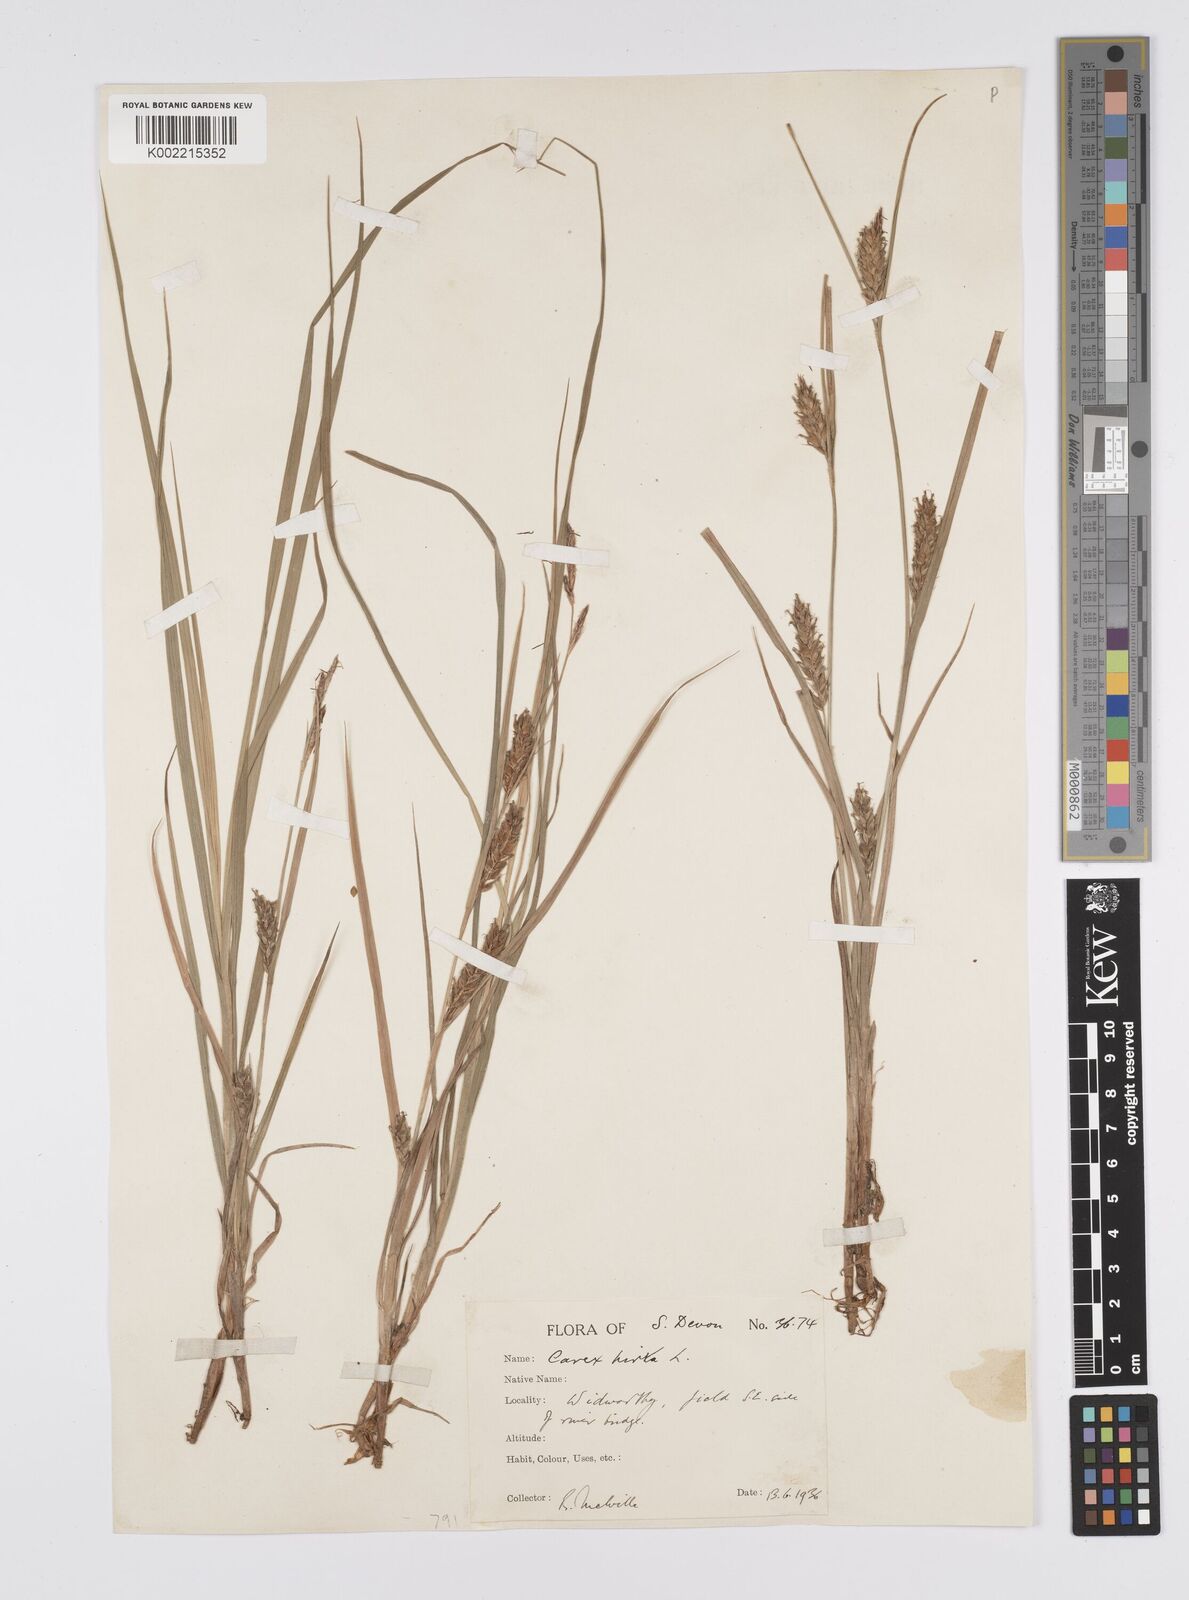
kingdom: Plantae
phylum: Tracheophyta
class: Liliopsida
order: Poales
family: Cyperaceae
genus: Carex
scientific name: Carex hirta
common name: Hairy sedge
